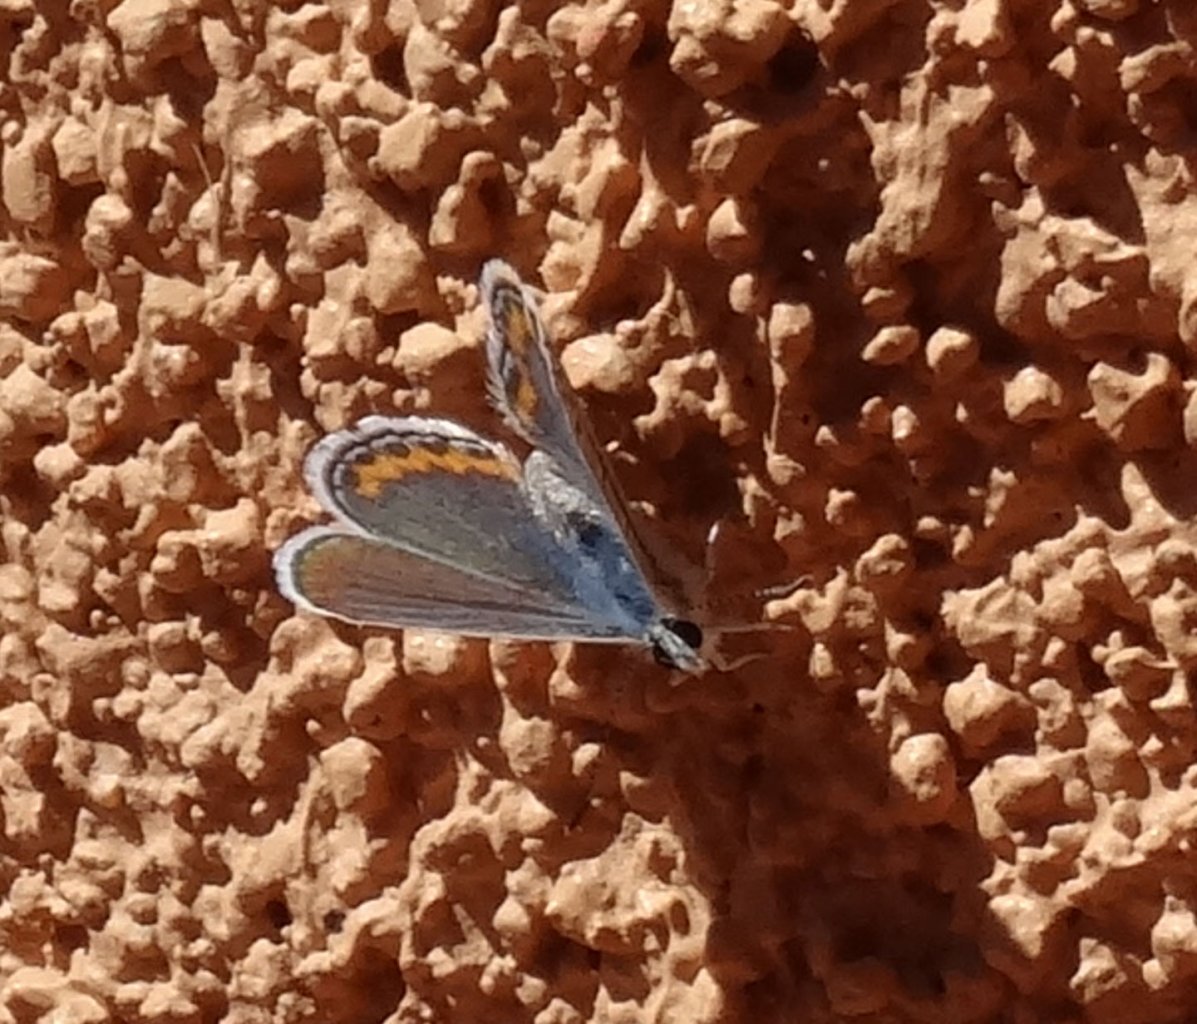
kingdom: Animalia
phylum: Arthropoda
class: Insecta
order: Lepidoptera
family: Lycaenidae
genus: Plebejus
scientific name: Plebejus acmon
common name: Acmon Blue
